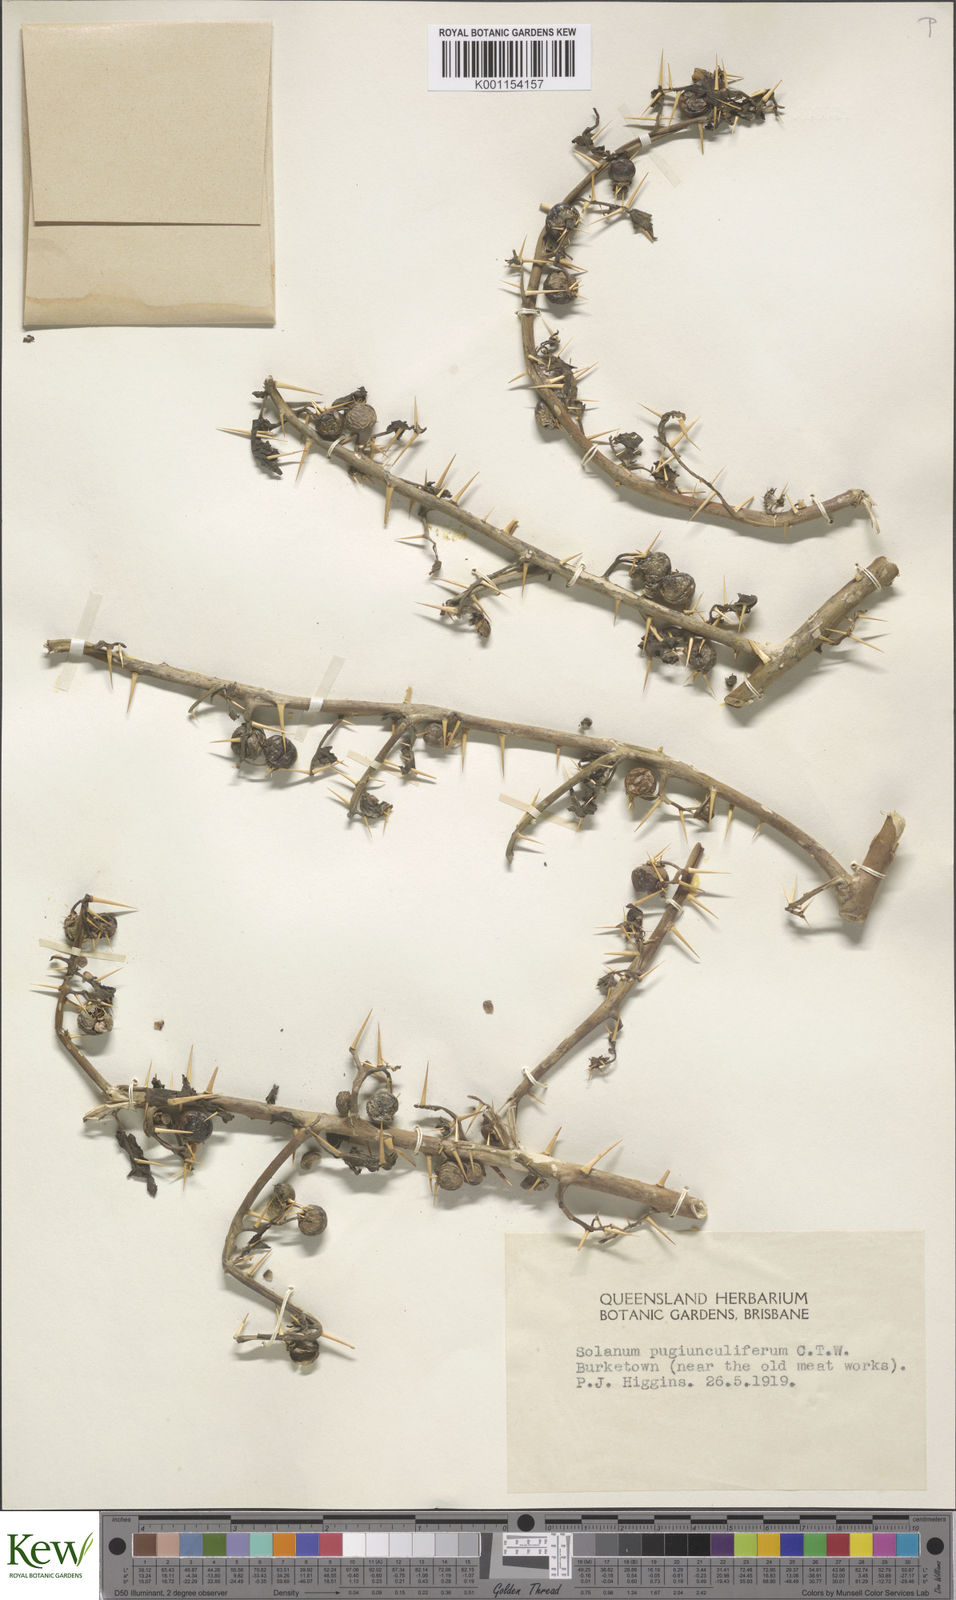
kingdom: Plantae
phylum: Tracheophyta
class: Magnoliopsida
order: Solanales
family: Solanaceae
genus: Solanum
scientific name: Solanum pugiunculiferum
